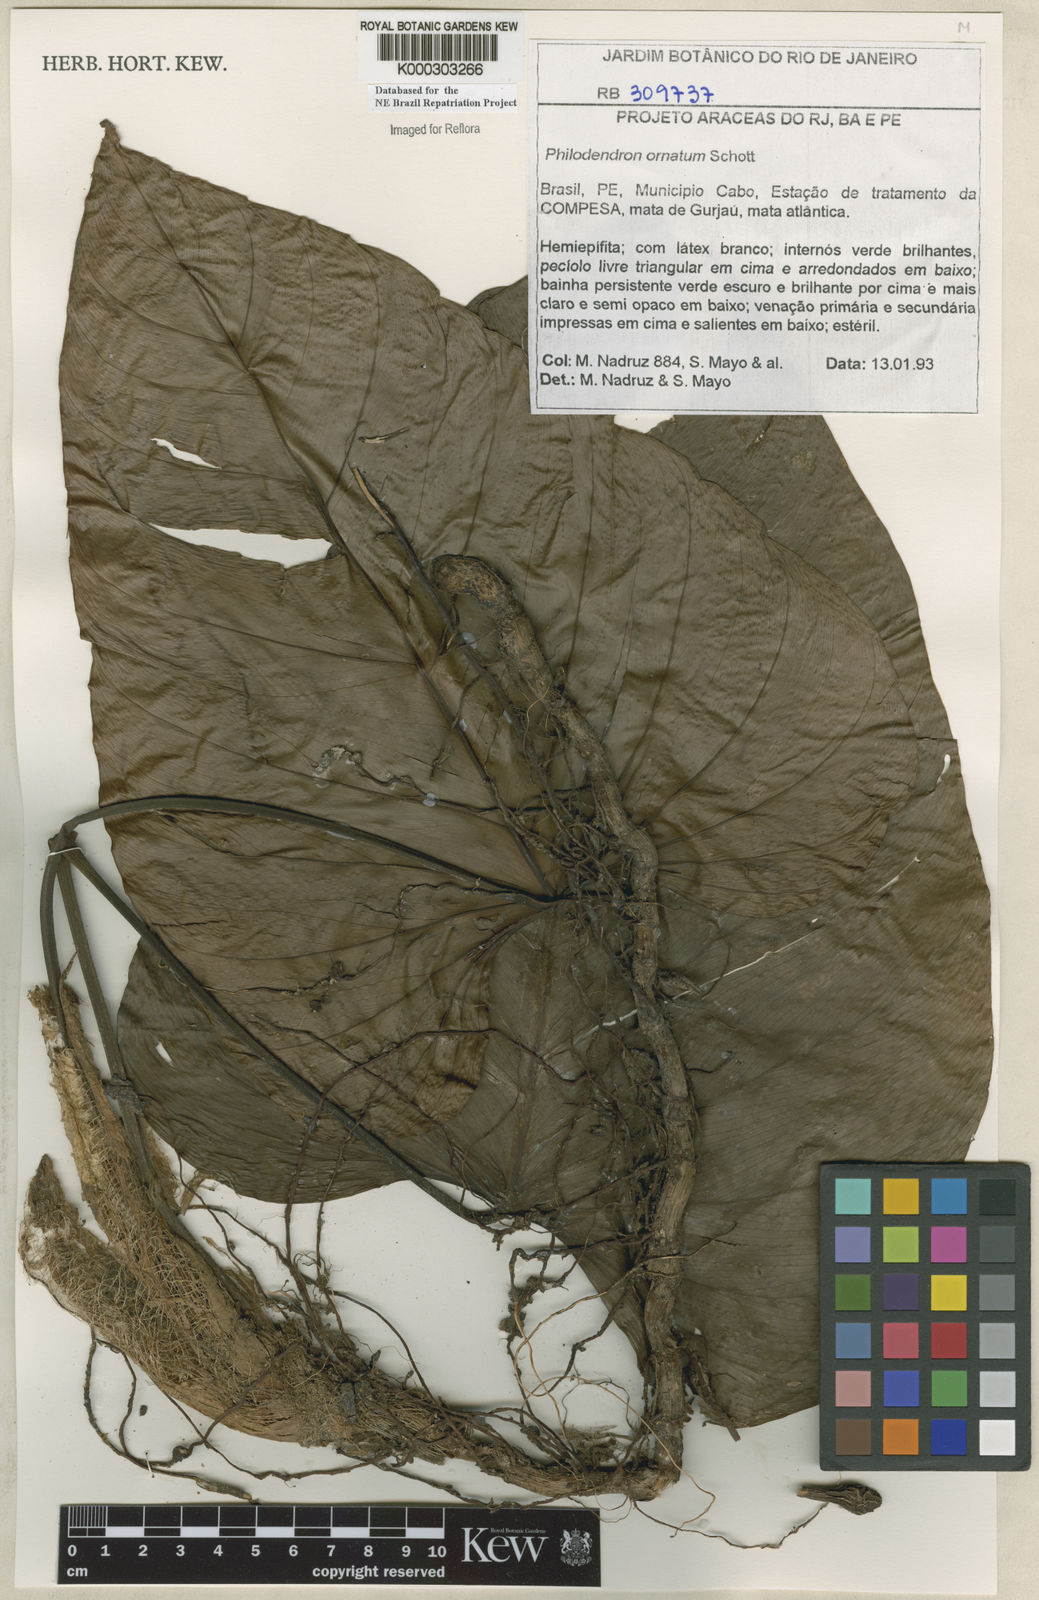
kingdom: Plantae
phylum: Tracheophyta
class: Liliopsida
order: Alismatales
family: Araceae
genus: Philodendron
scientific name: Philodendron ornatum
